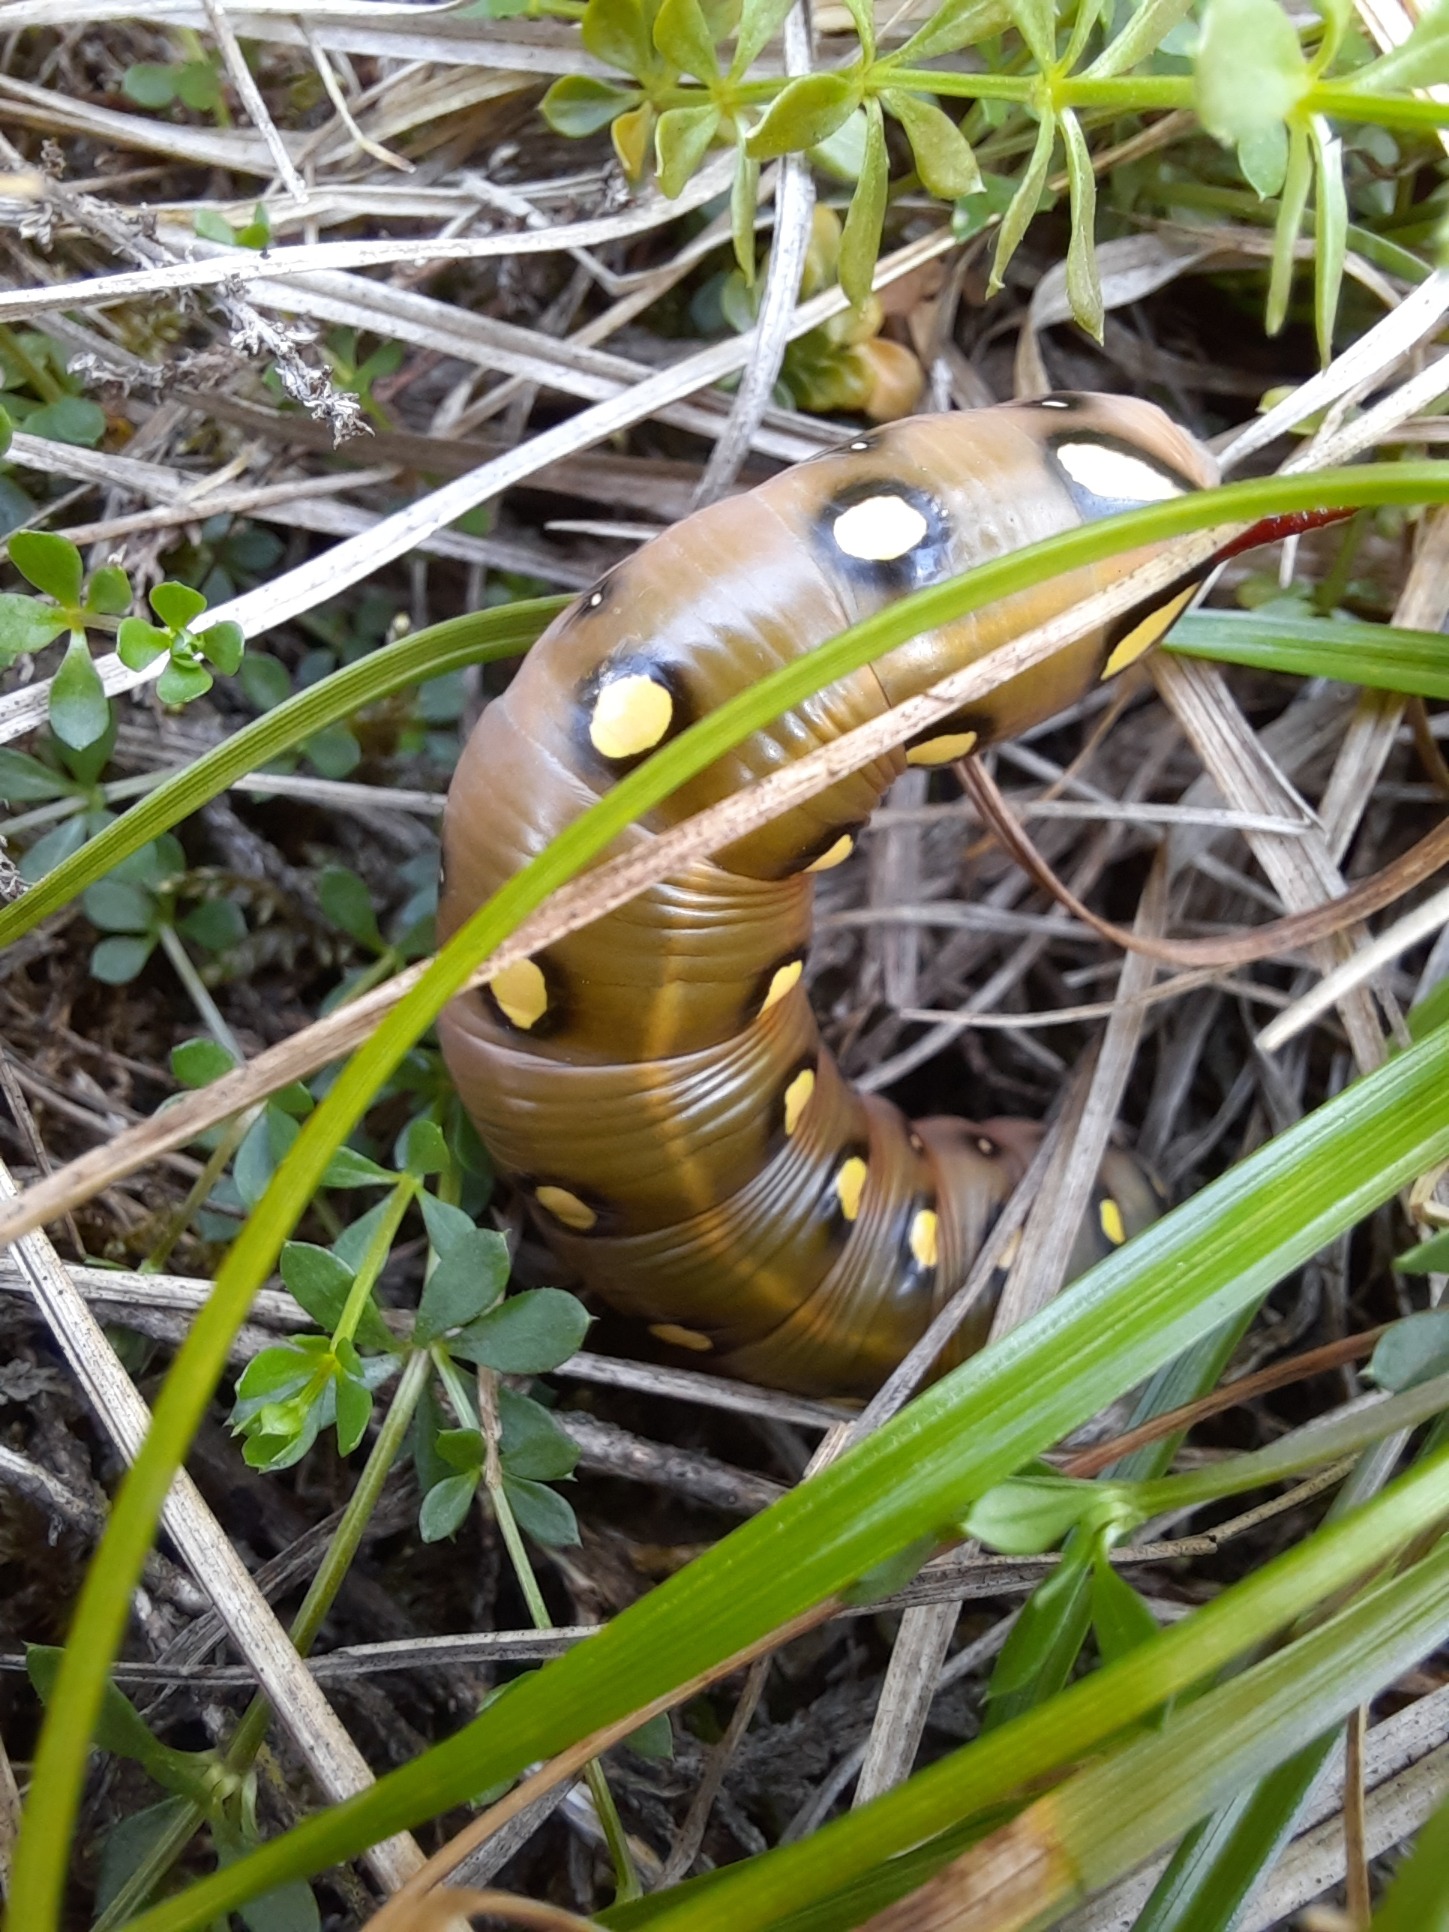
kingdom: Animalia
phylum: Arthropoda
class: Insecta
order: Lepidoptera
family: Sphingidae
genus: Hyles
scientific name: Hyles gallii
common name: Snerresværmer
